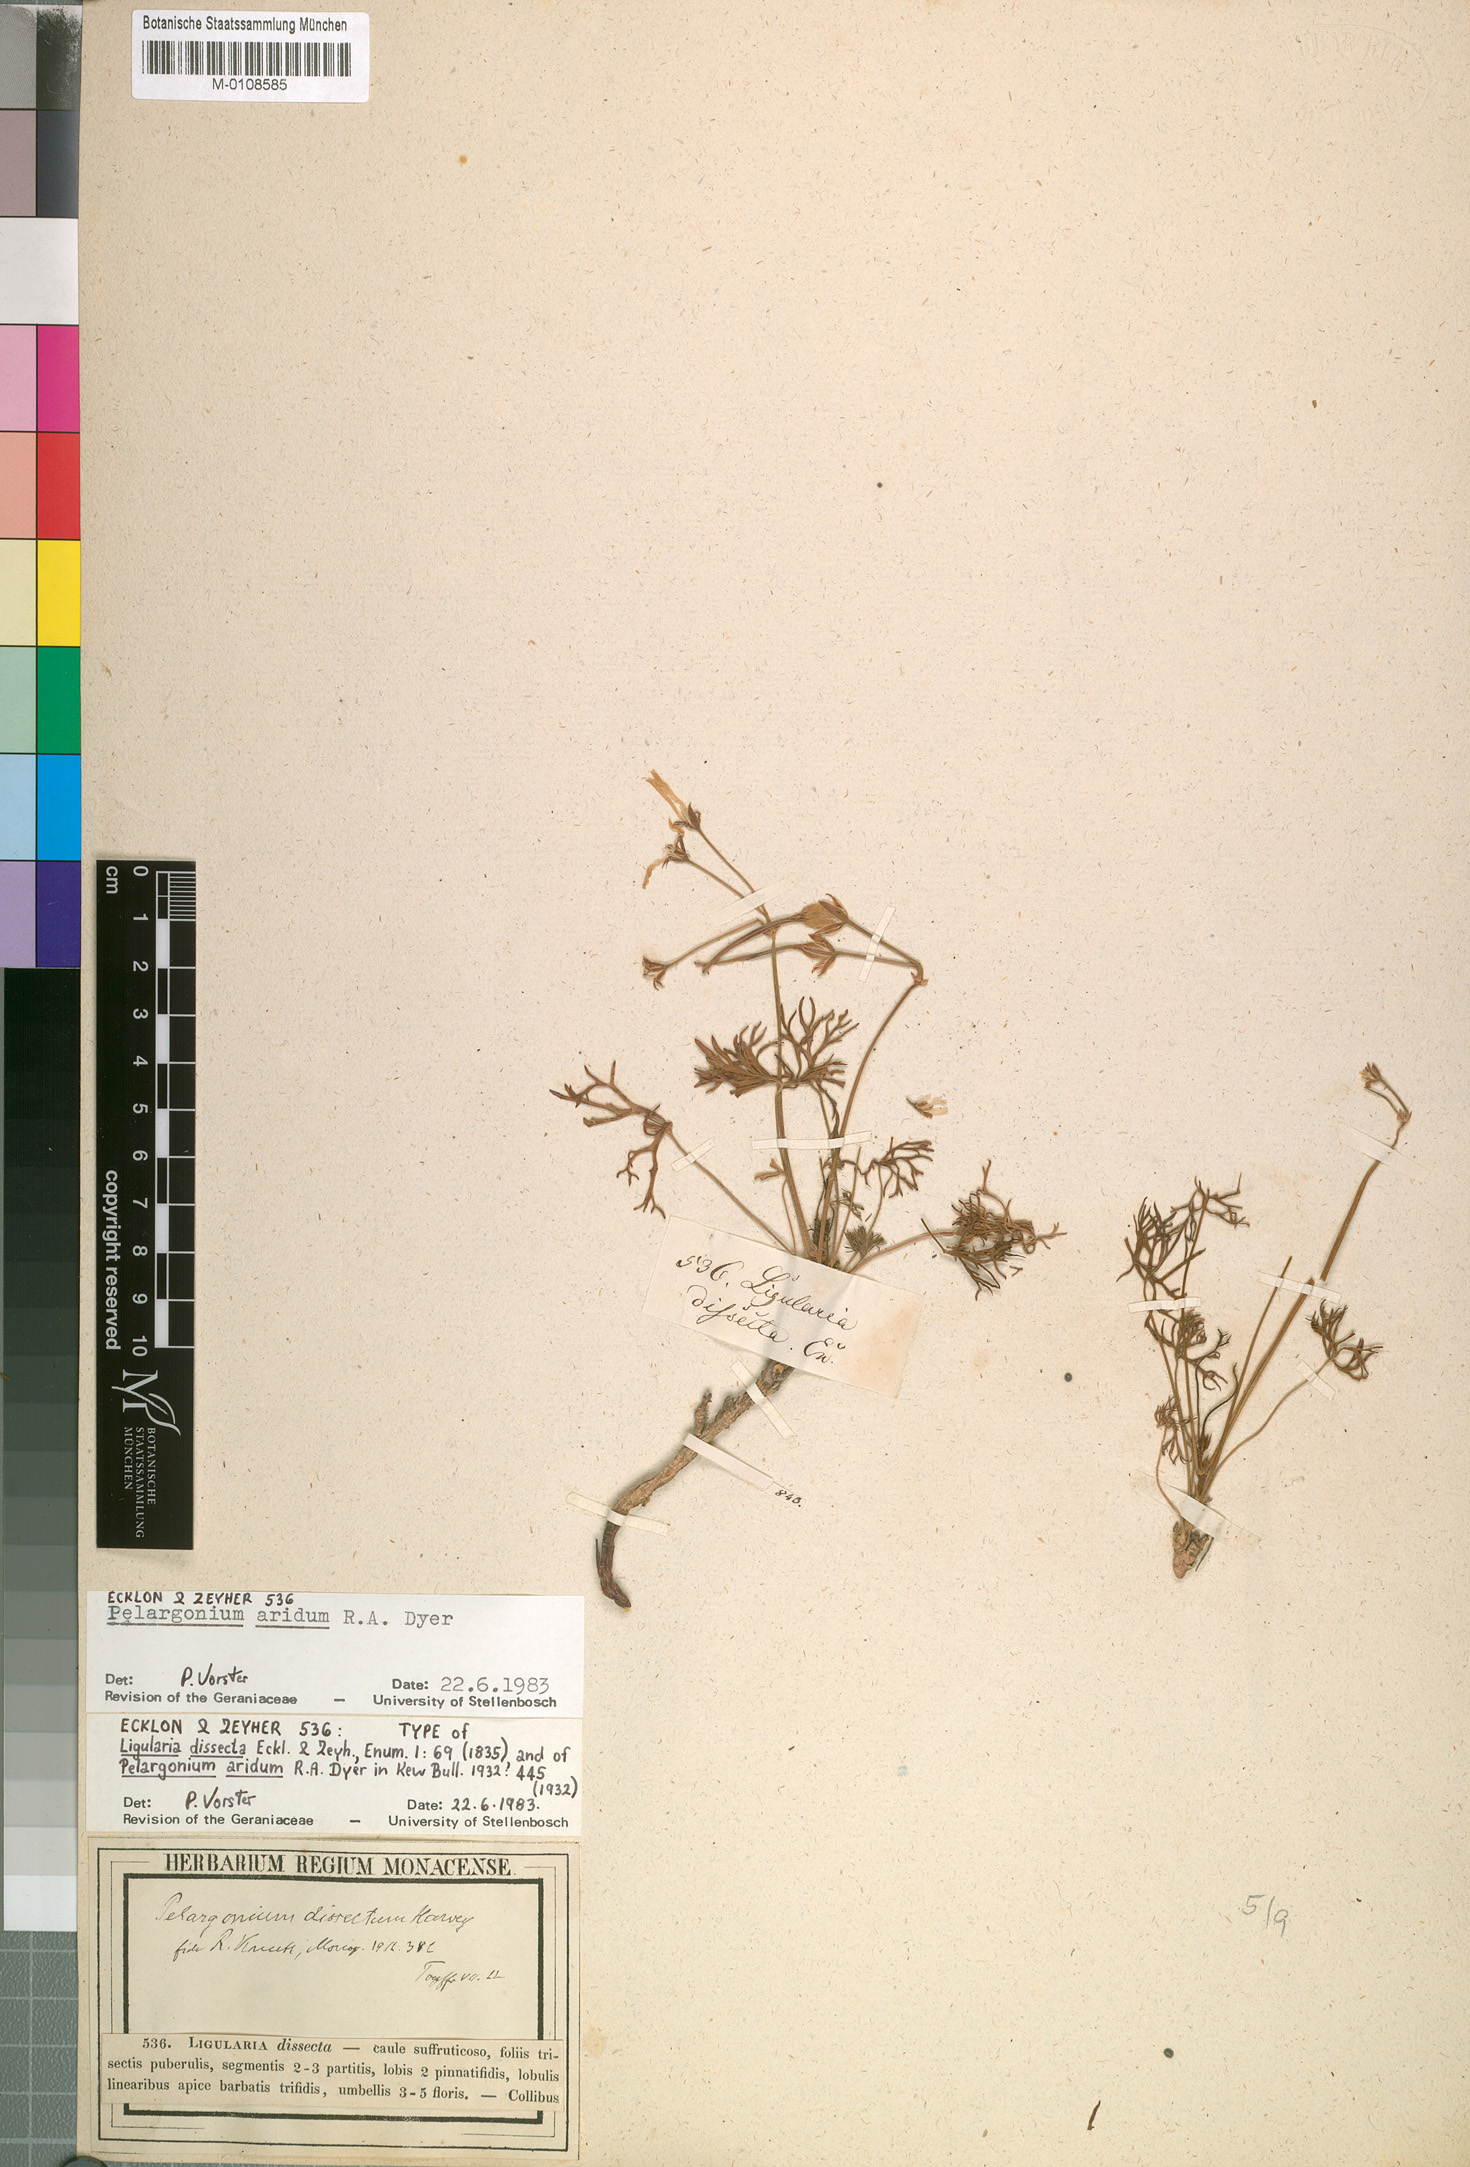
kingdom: Plantae
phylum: Tracheophyta
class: Magnoliopsida
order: Geraniales
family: Geraniaceae
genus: Pelargonium
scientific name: Pelargonium aridum
